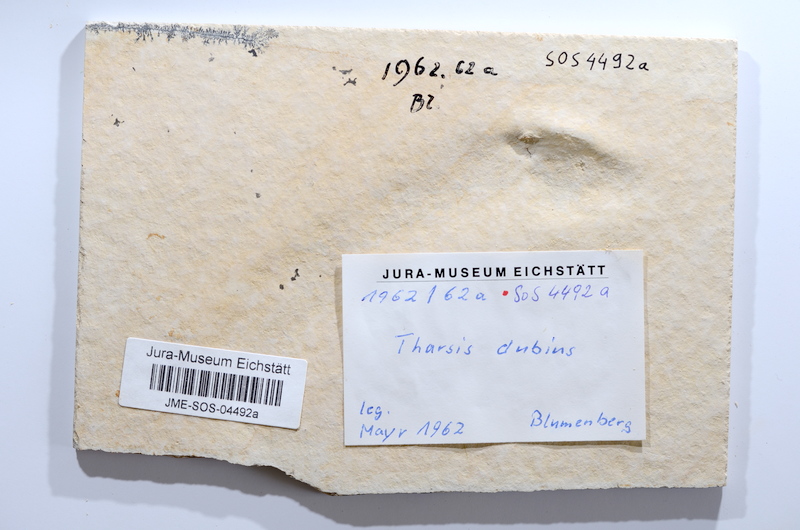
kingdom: Animalia
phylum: Chordata
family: Ascalaboidae
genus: Tharsis
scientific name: Tharsis dubius
